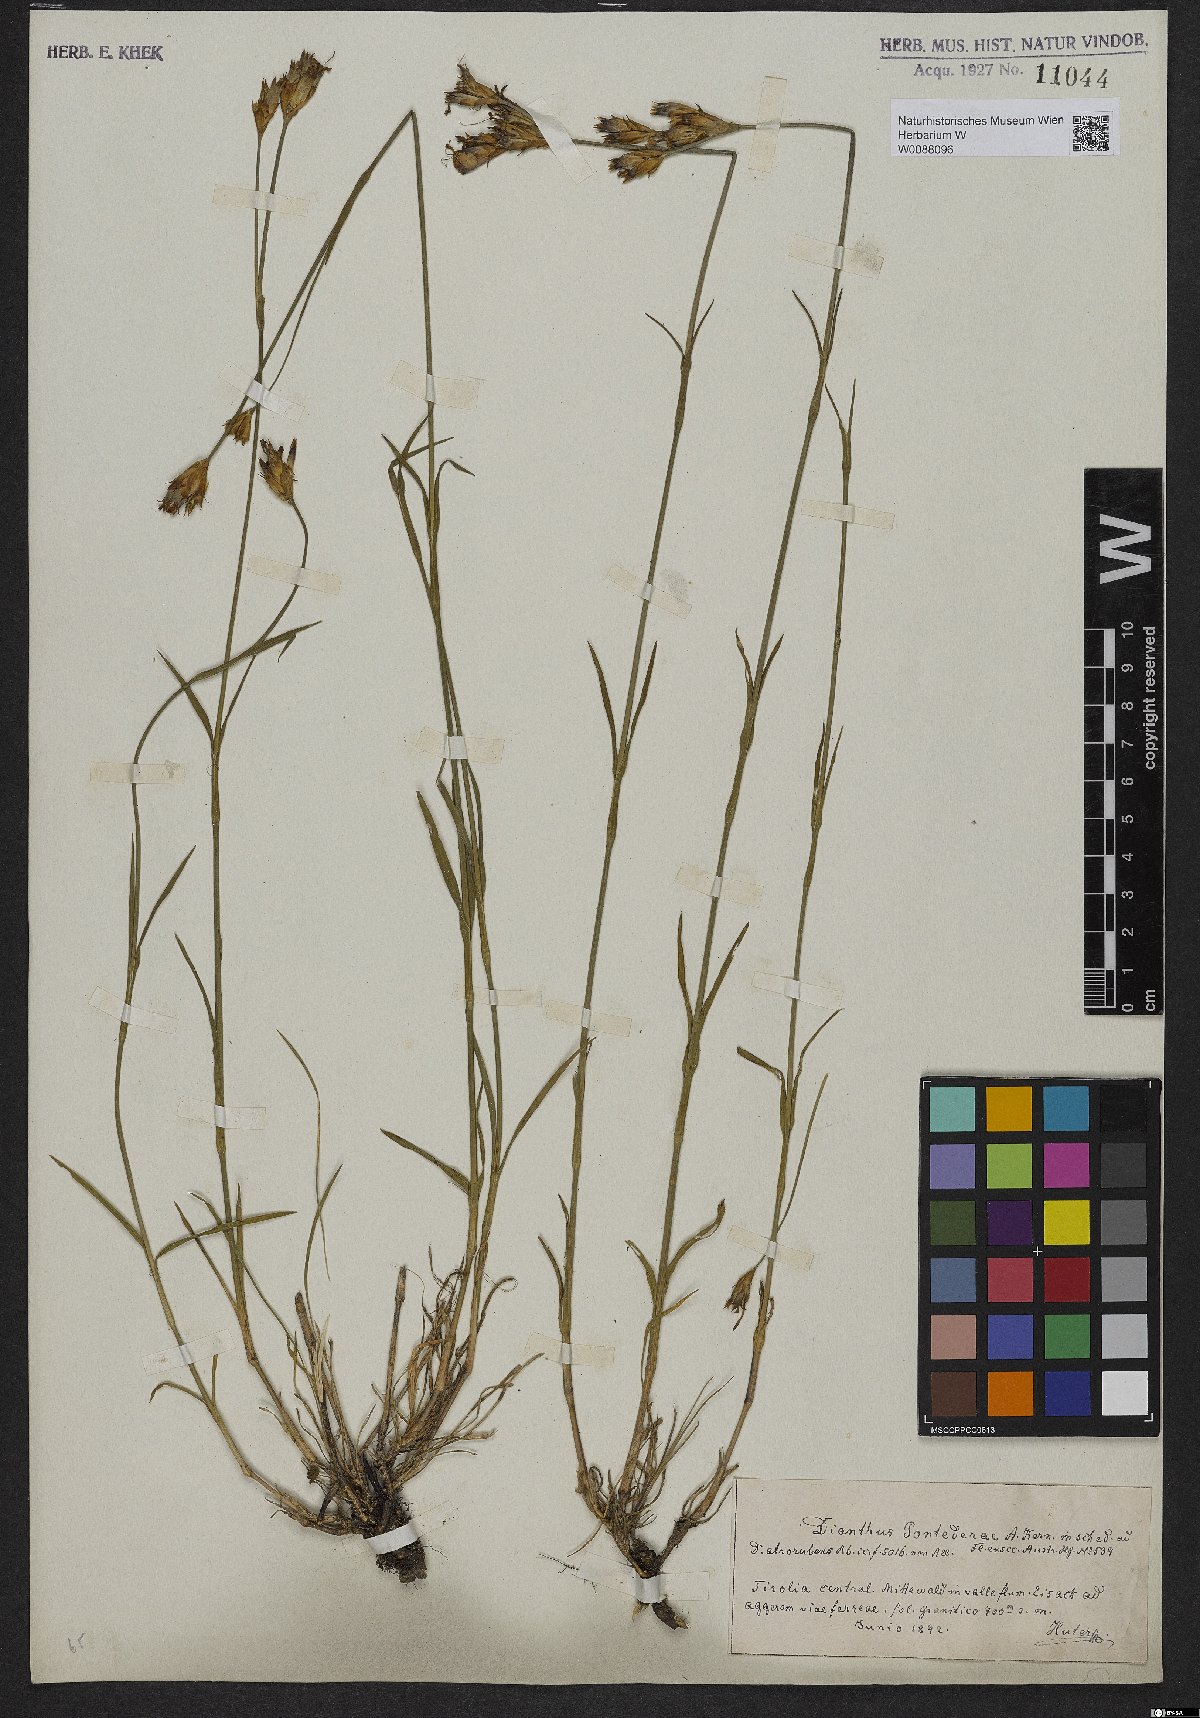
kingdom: Plantae
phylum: Tracheophyta
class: Magnoliopsida
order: Caryophyllales
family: Caryophyllaceae
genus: Dianthus
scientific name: Dianthus pontederae
